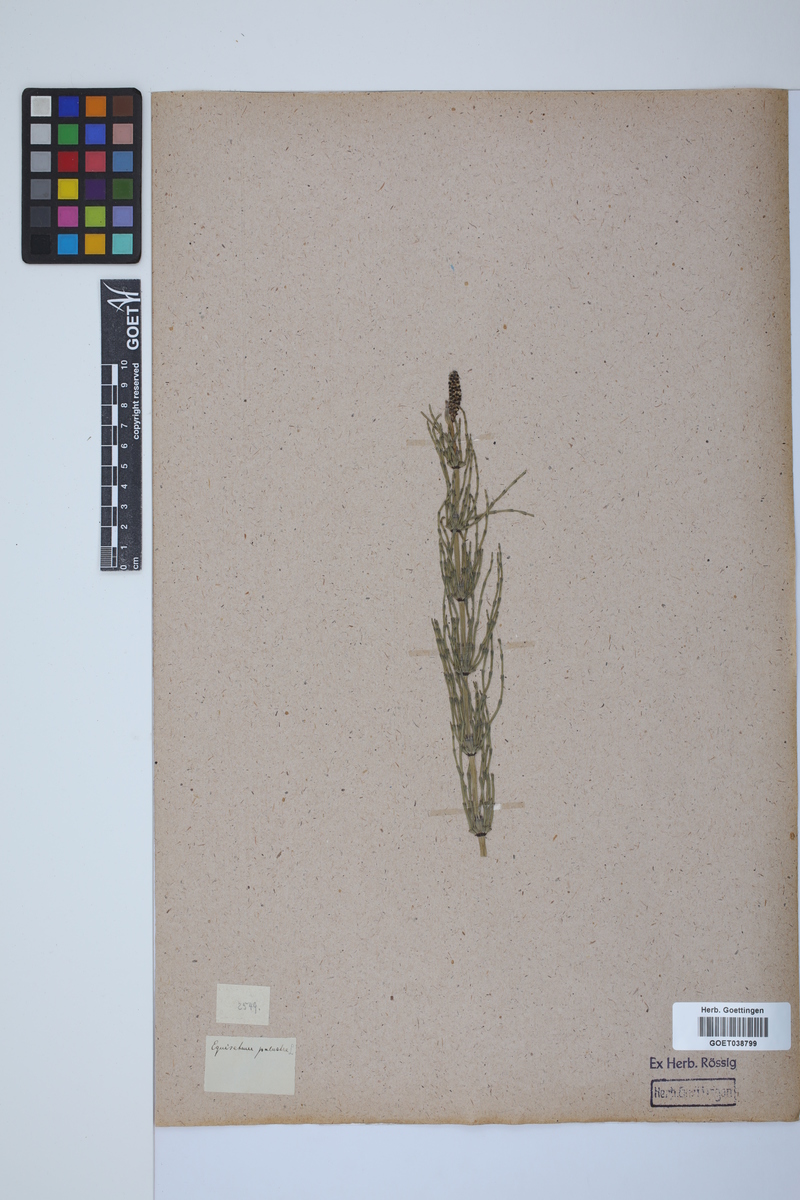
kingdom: Plantae
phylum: Tracheophyta
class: Polypodiopsida
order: Equisetales
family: Equisetaceae
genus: Equisetum
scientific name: Equisetum palustre
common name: Marsh horsetail
